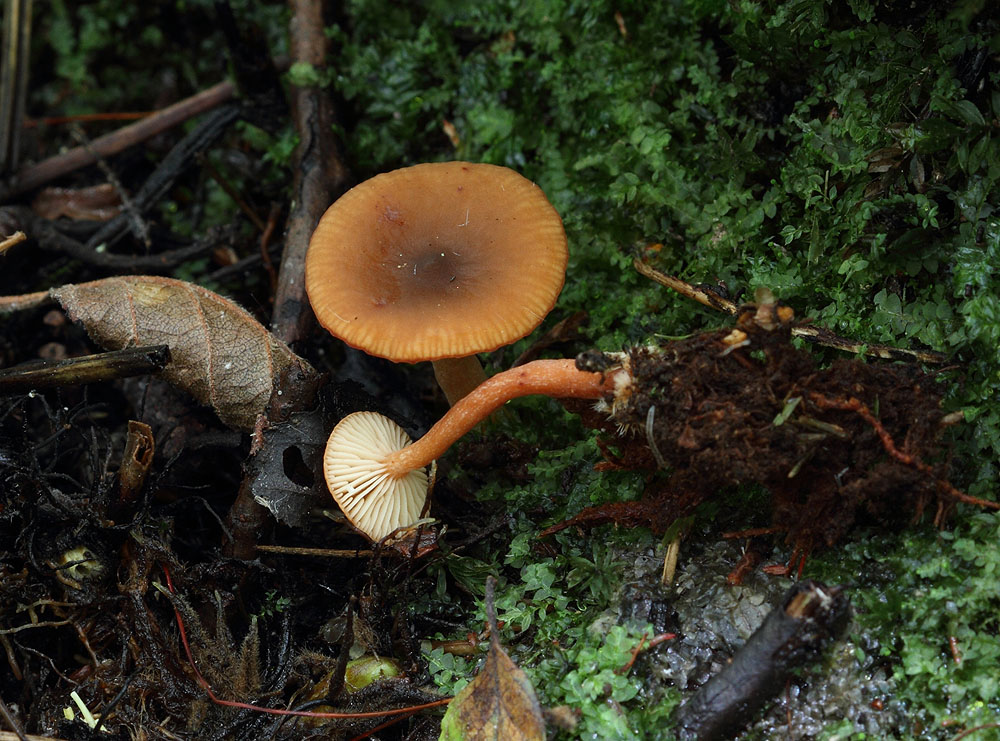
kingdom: Fungi
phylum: Basidiomycota
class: Agaricomycetes
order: Russulales
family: Russulaceae
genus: Lactarius
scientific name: Lactarius obscuratus
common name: elle-mælkehat
